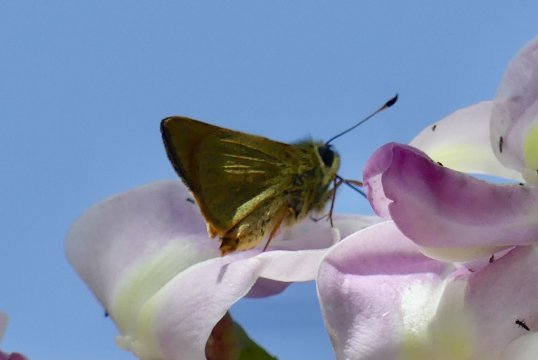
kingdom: Animalia
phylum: Arthropoda
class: Insecta
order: Lepidoptera
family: Hesperiidae
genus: Ochlodes
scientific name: Ochlodes
